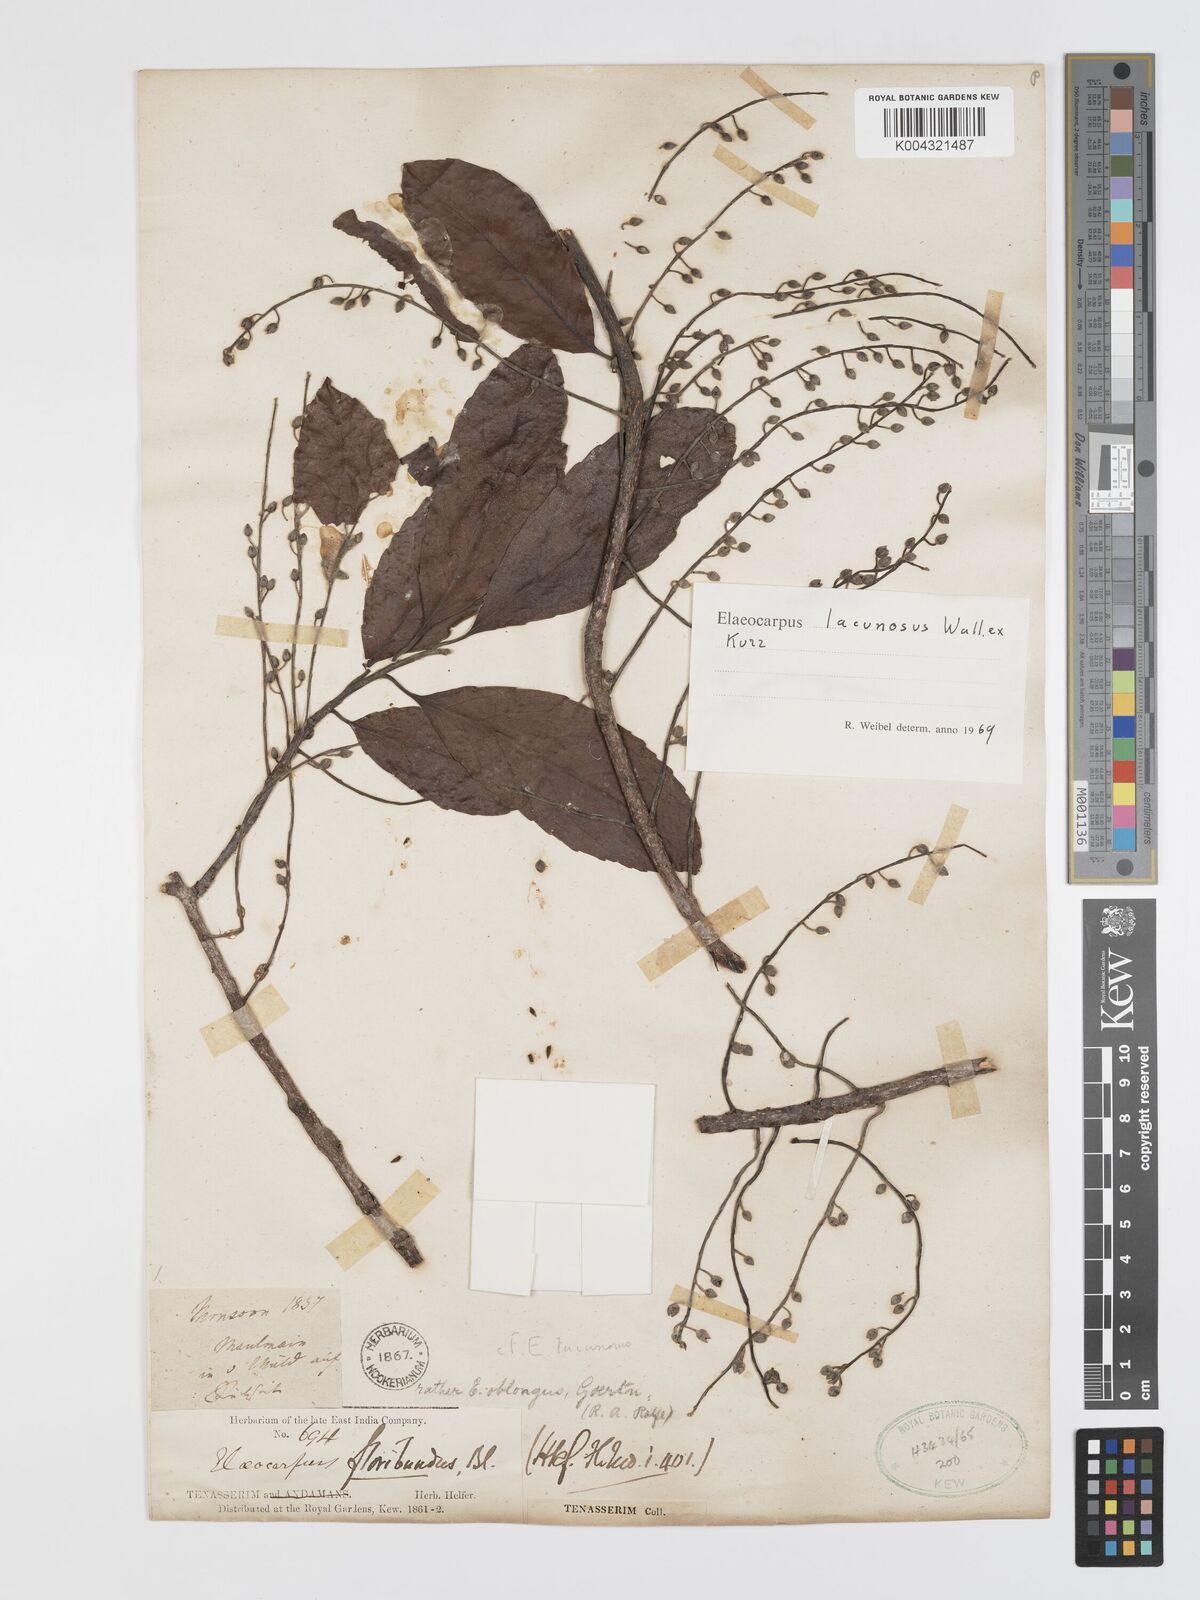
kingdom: Plantae
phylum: Tracheophyta
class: Magnoliopsida
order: Oxalidales
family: Elaeocarpaceae
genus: Elaeocarpus
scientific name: Elaeocarpus lanceifolius
